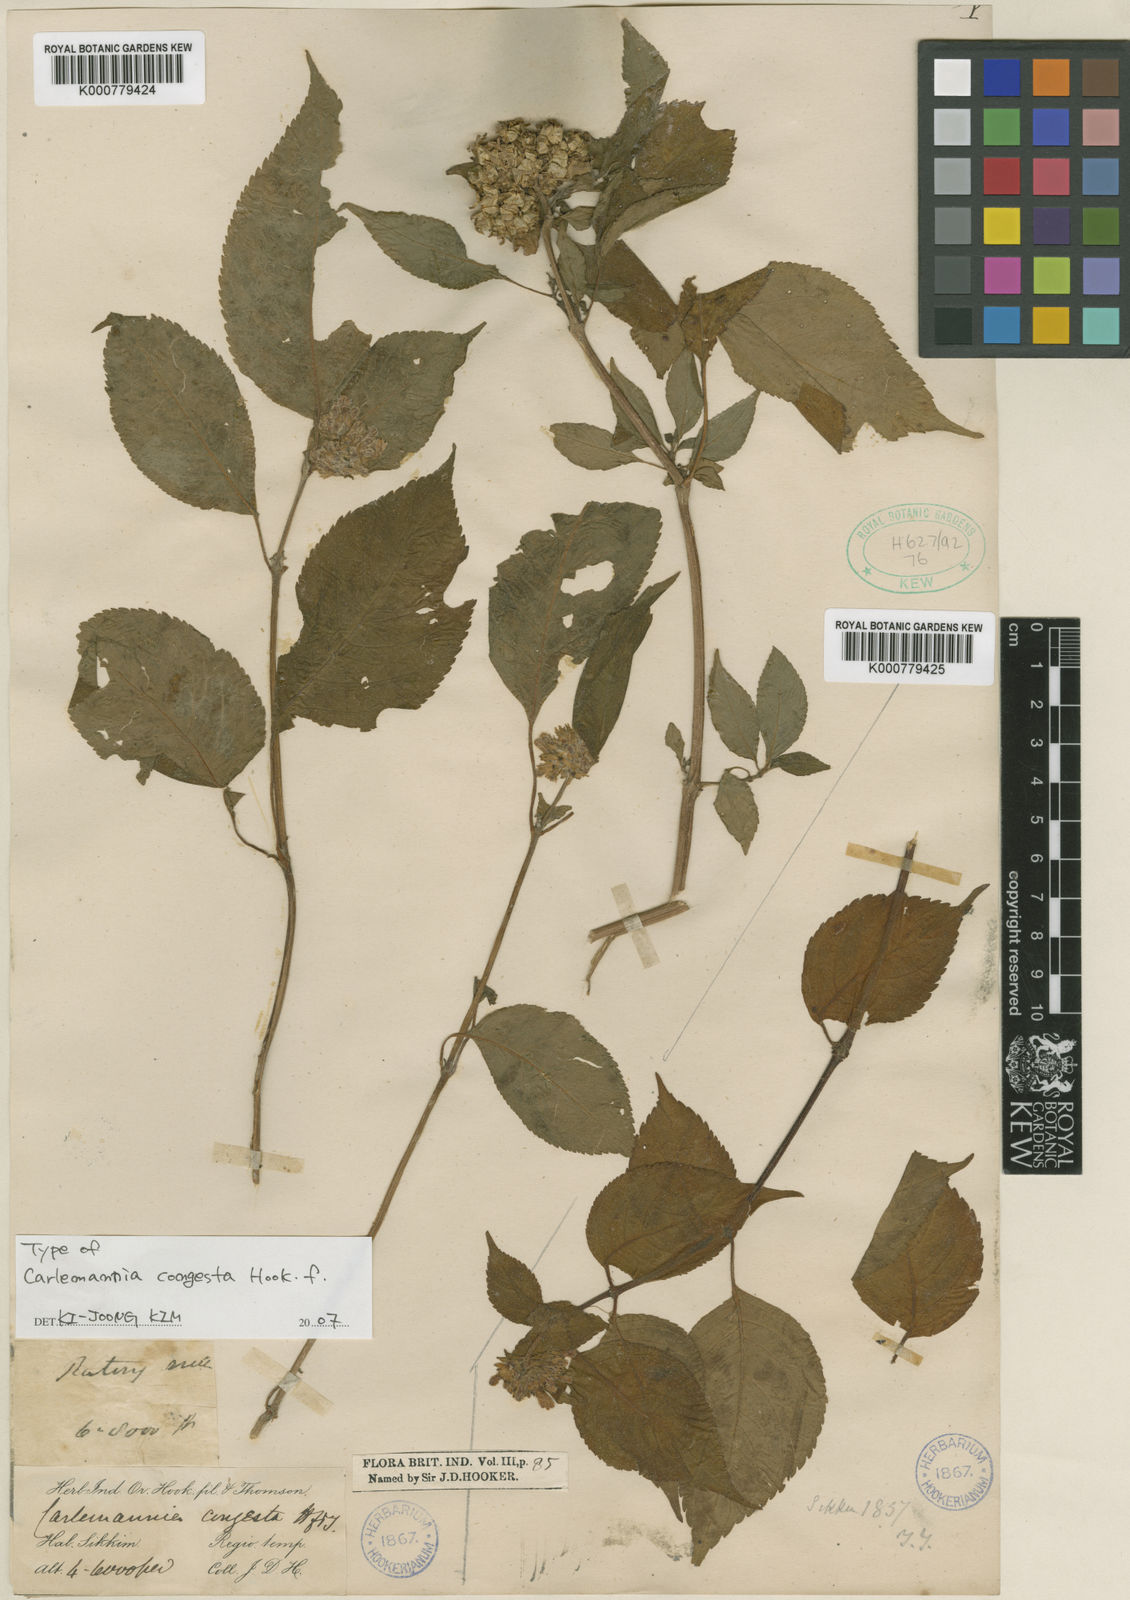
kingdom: Plantae
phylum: Tracheophyta
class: Magnoliopsida
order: Lamiales
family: Carlemanniaceae
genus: Carlemannia
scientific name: Carlemannia congesta
